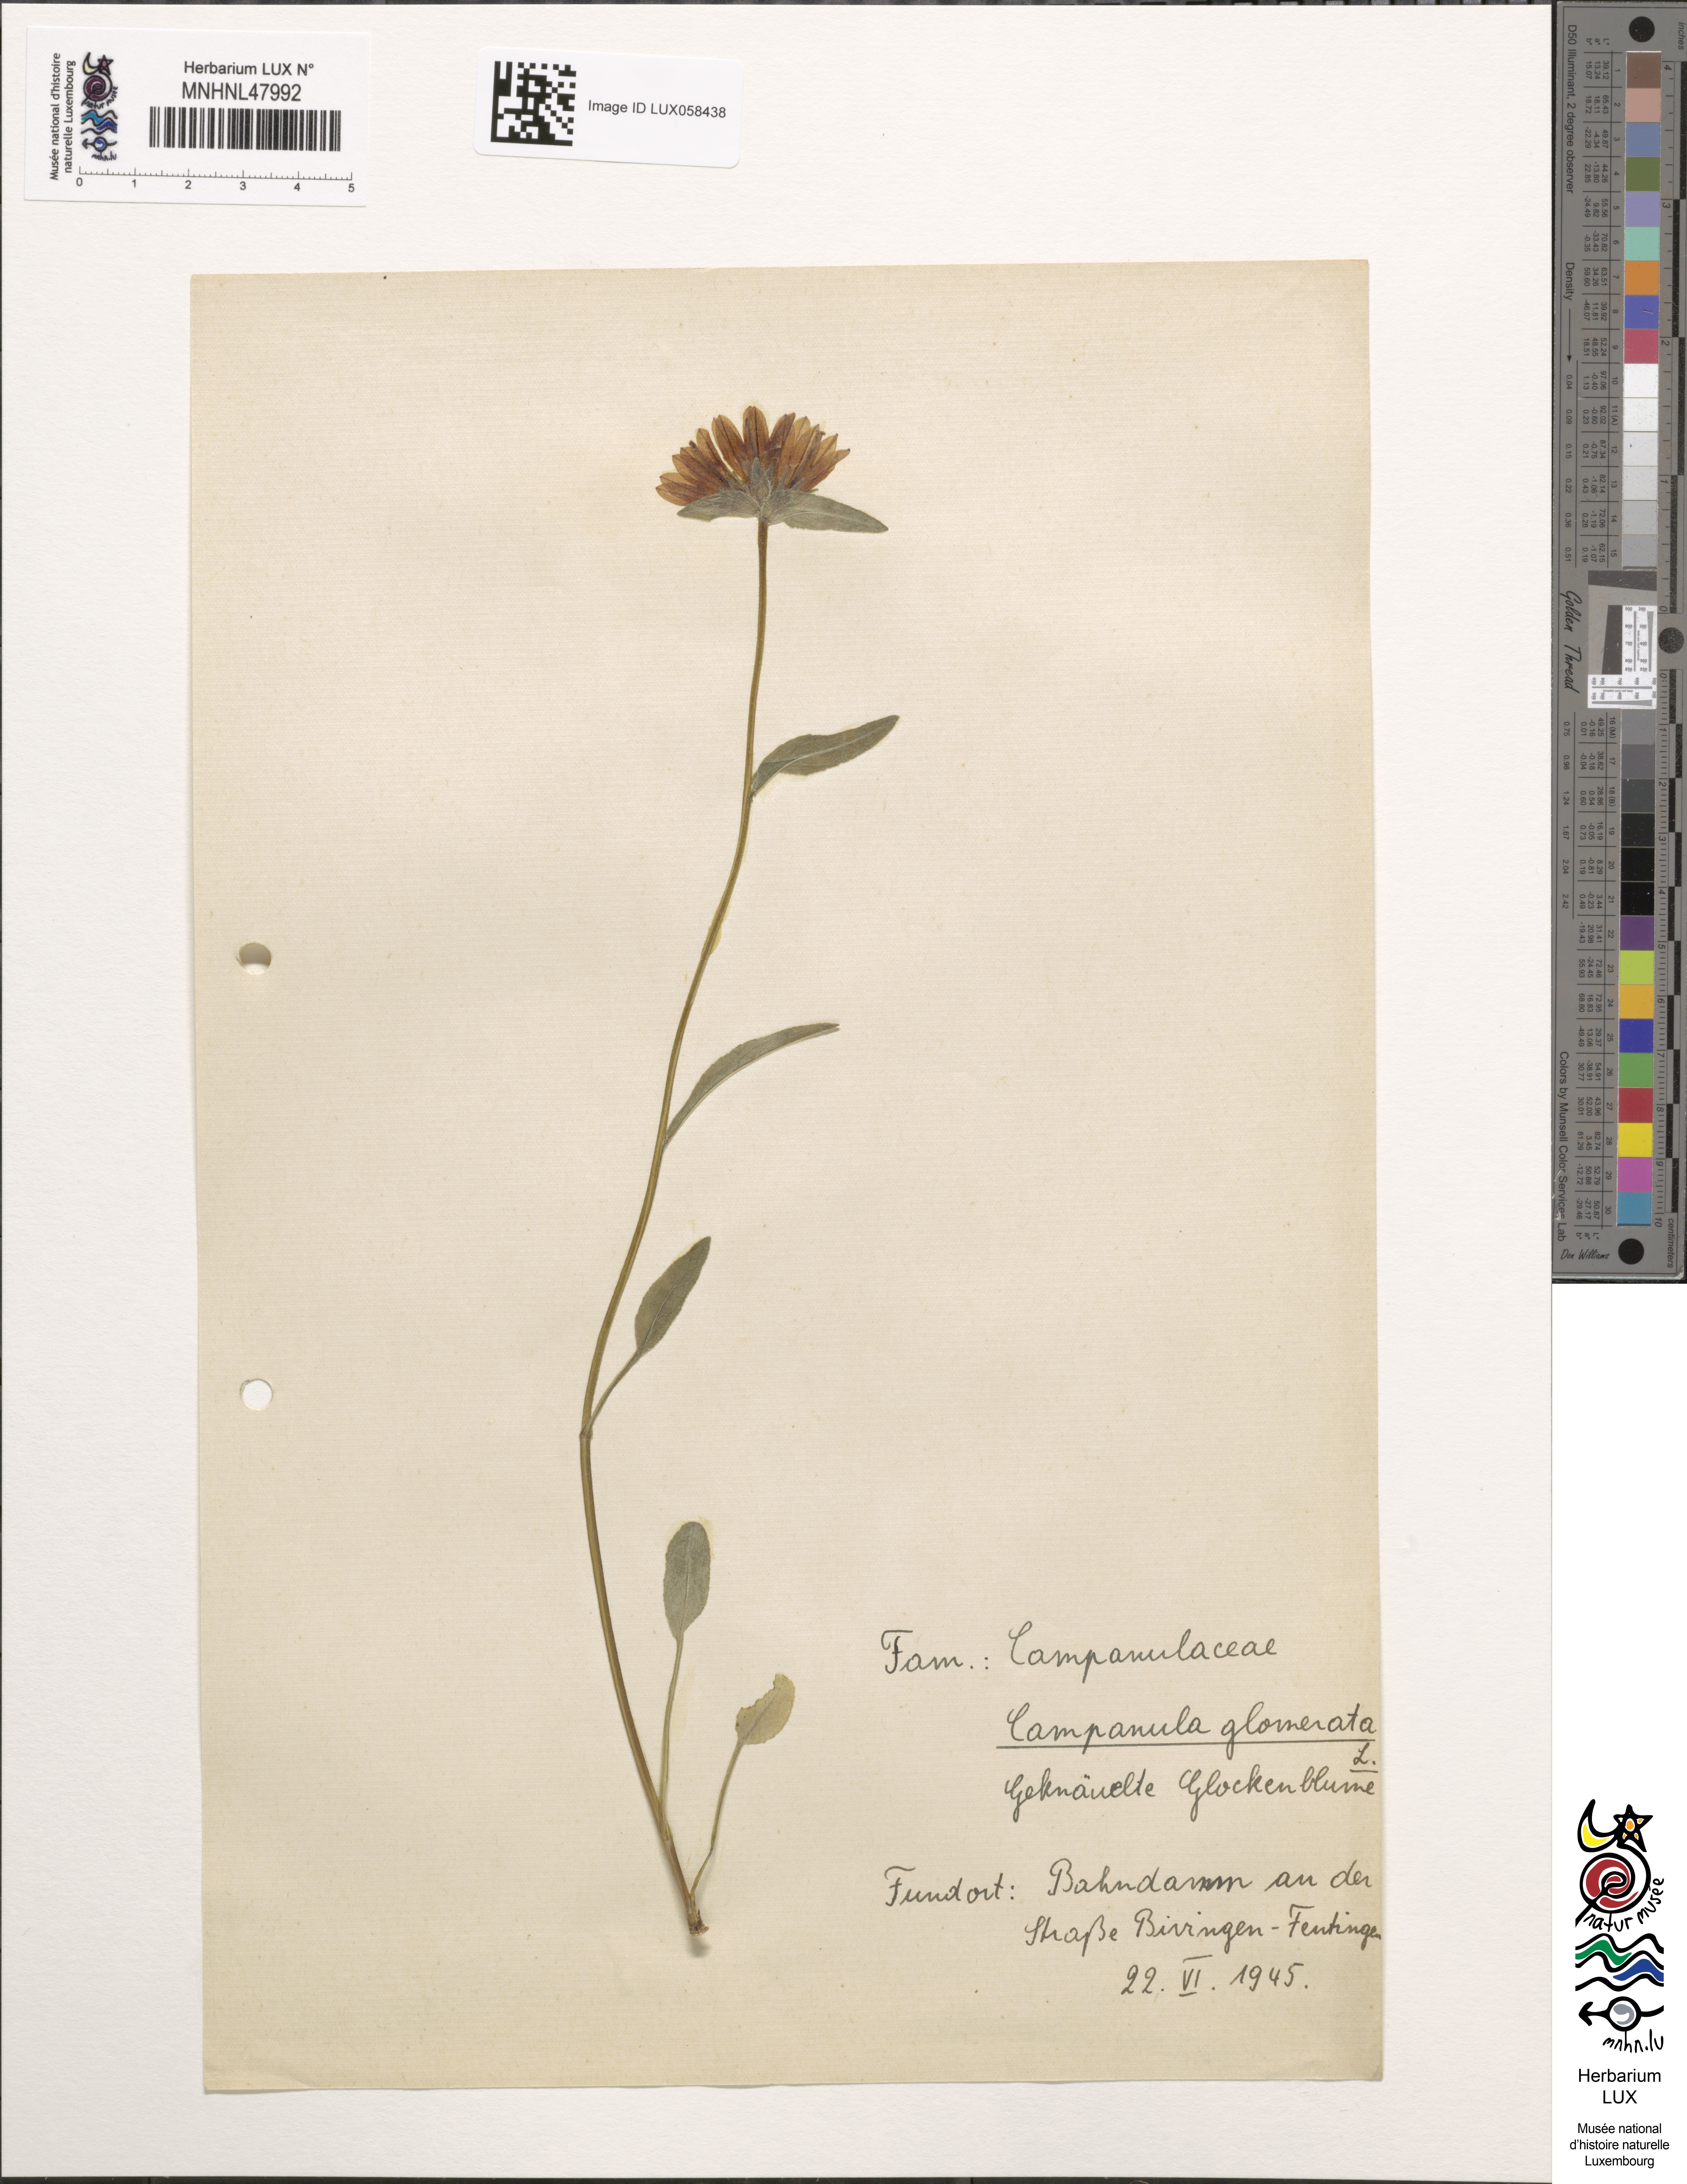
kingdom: Plantae
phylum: Tracheophyta
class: Magnoliopsida
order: Asterales
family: Campanulaceae
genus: Campanula
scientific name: Campanula glomerata
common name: Clustered bellflower
